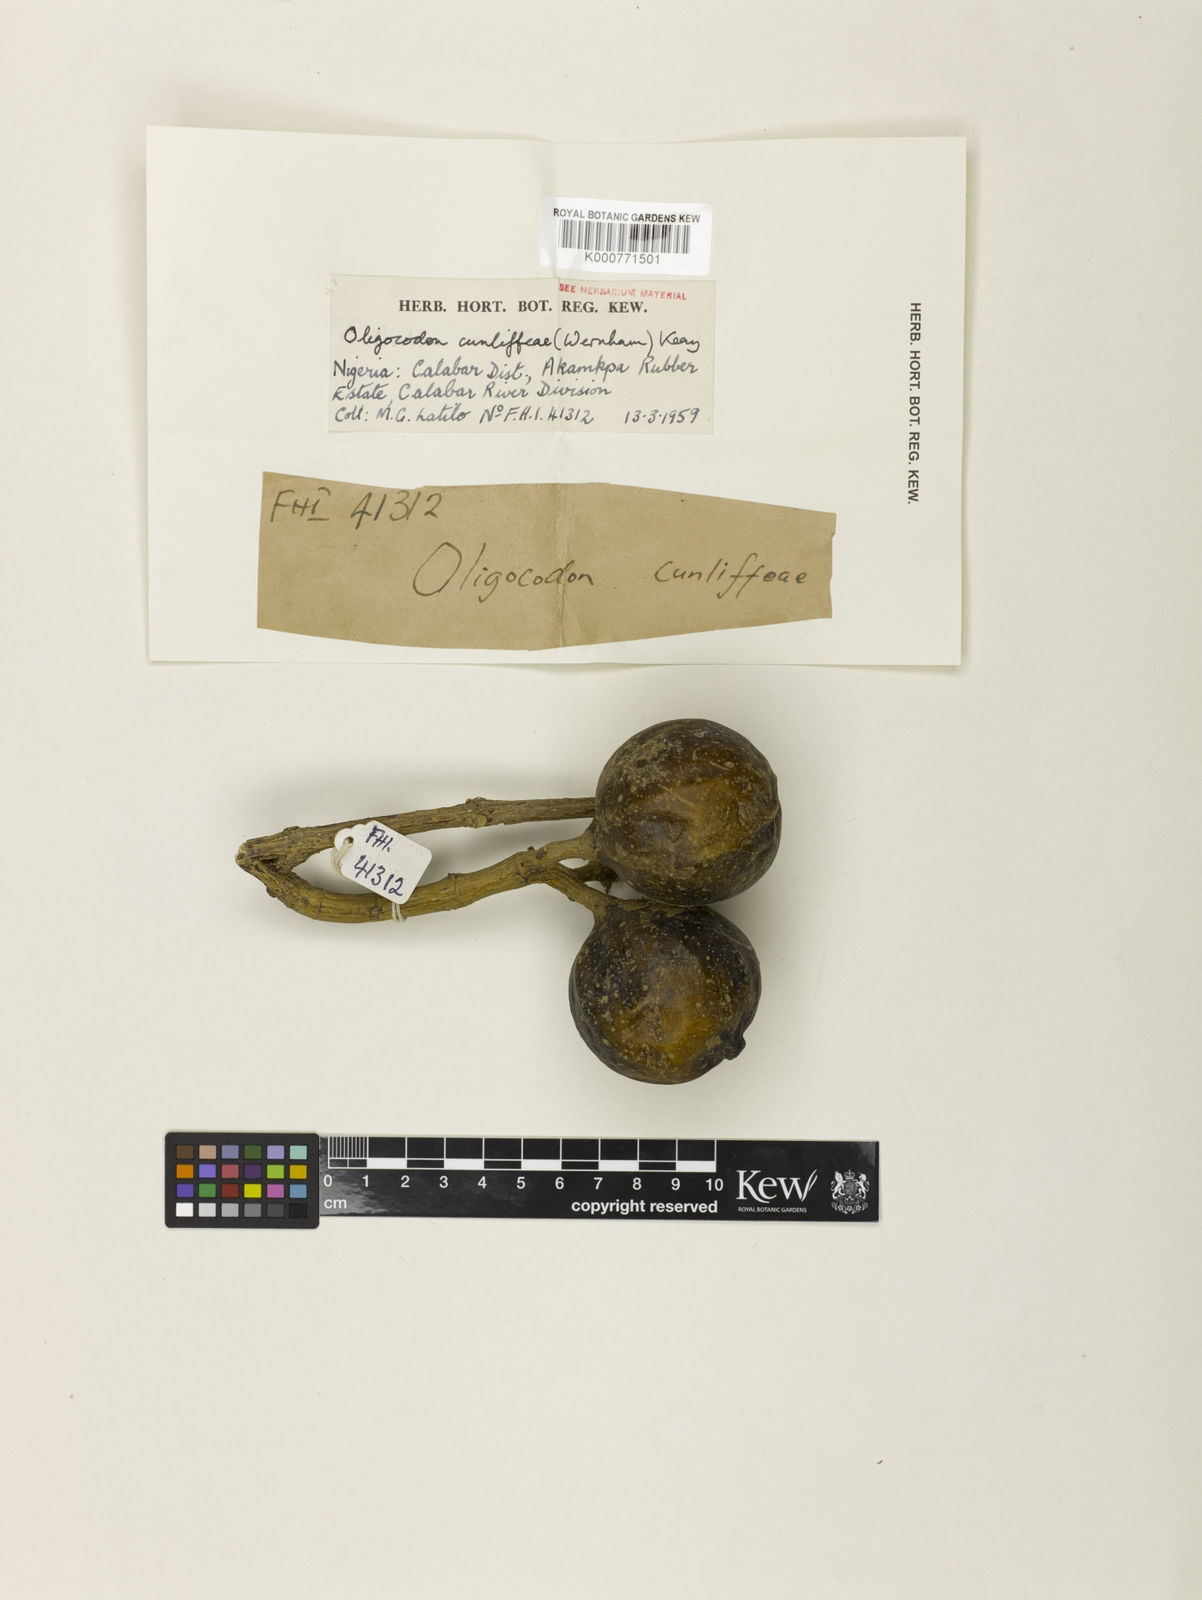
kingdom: Plantae
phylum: Tracheophyta
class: Magnoliopsida
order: Gentianales
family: Rubiaceae
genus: Oligocodon
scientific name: Oligocodon cunliffeae
